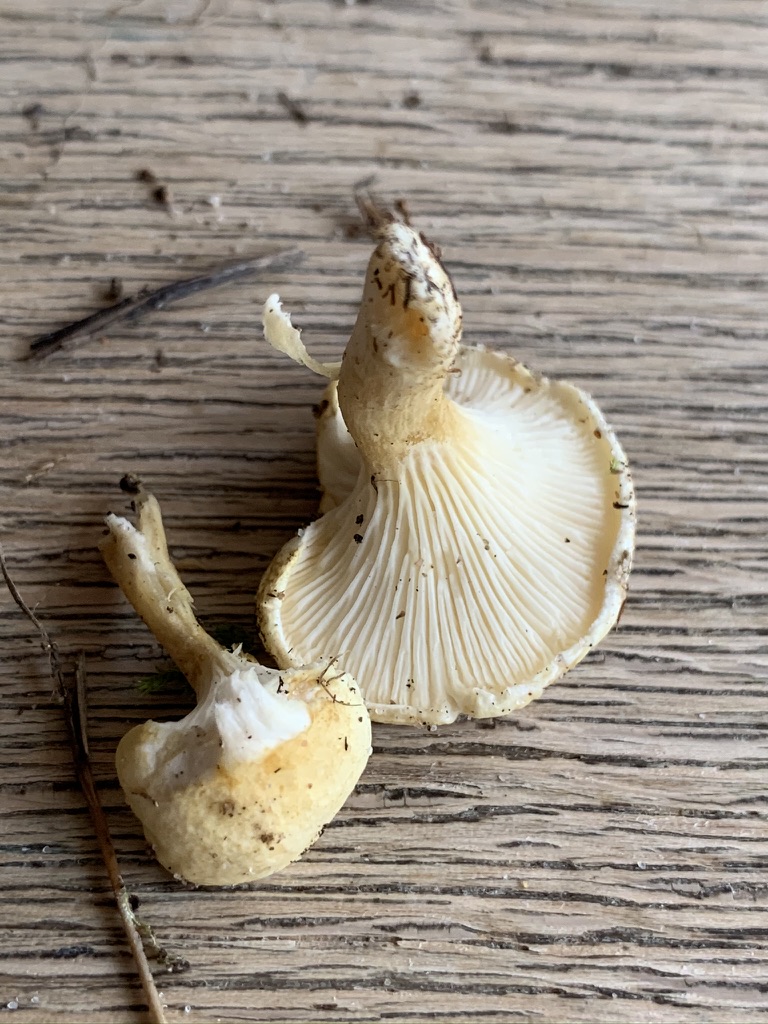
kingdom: Fungi
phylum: Basidiomycota
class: Agaricomycetes
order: Boletales
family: Hygrophoropsidaceae
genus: Hygrophoropsis
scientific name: Hygrophoropsis pallida
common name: bleg orangekantarel
